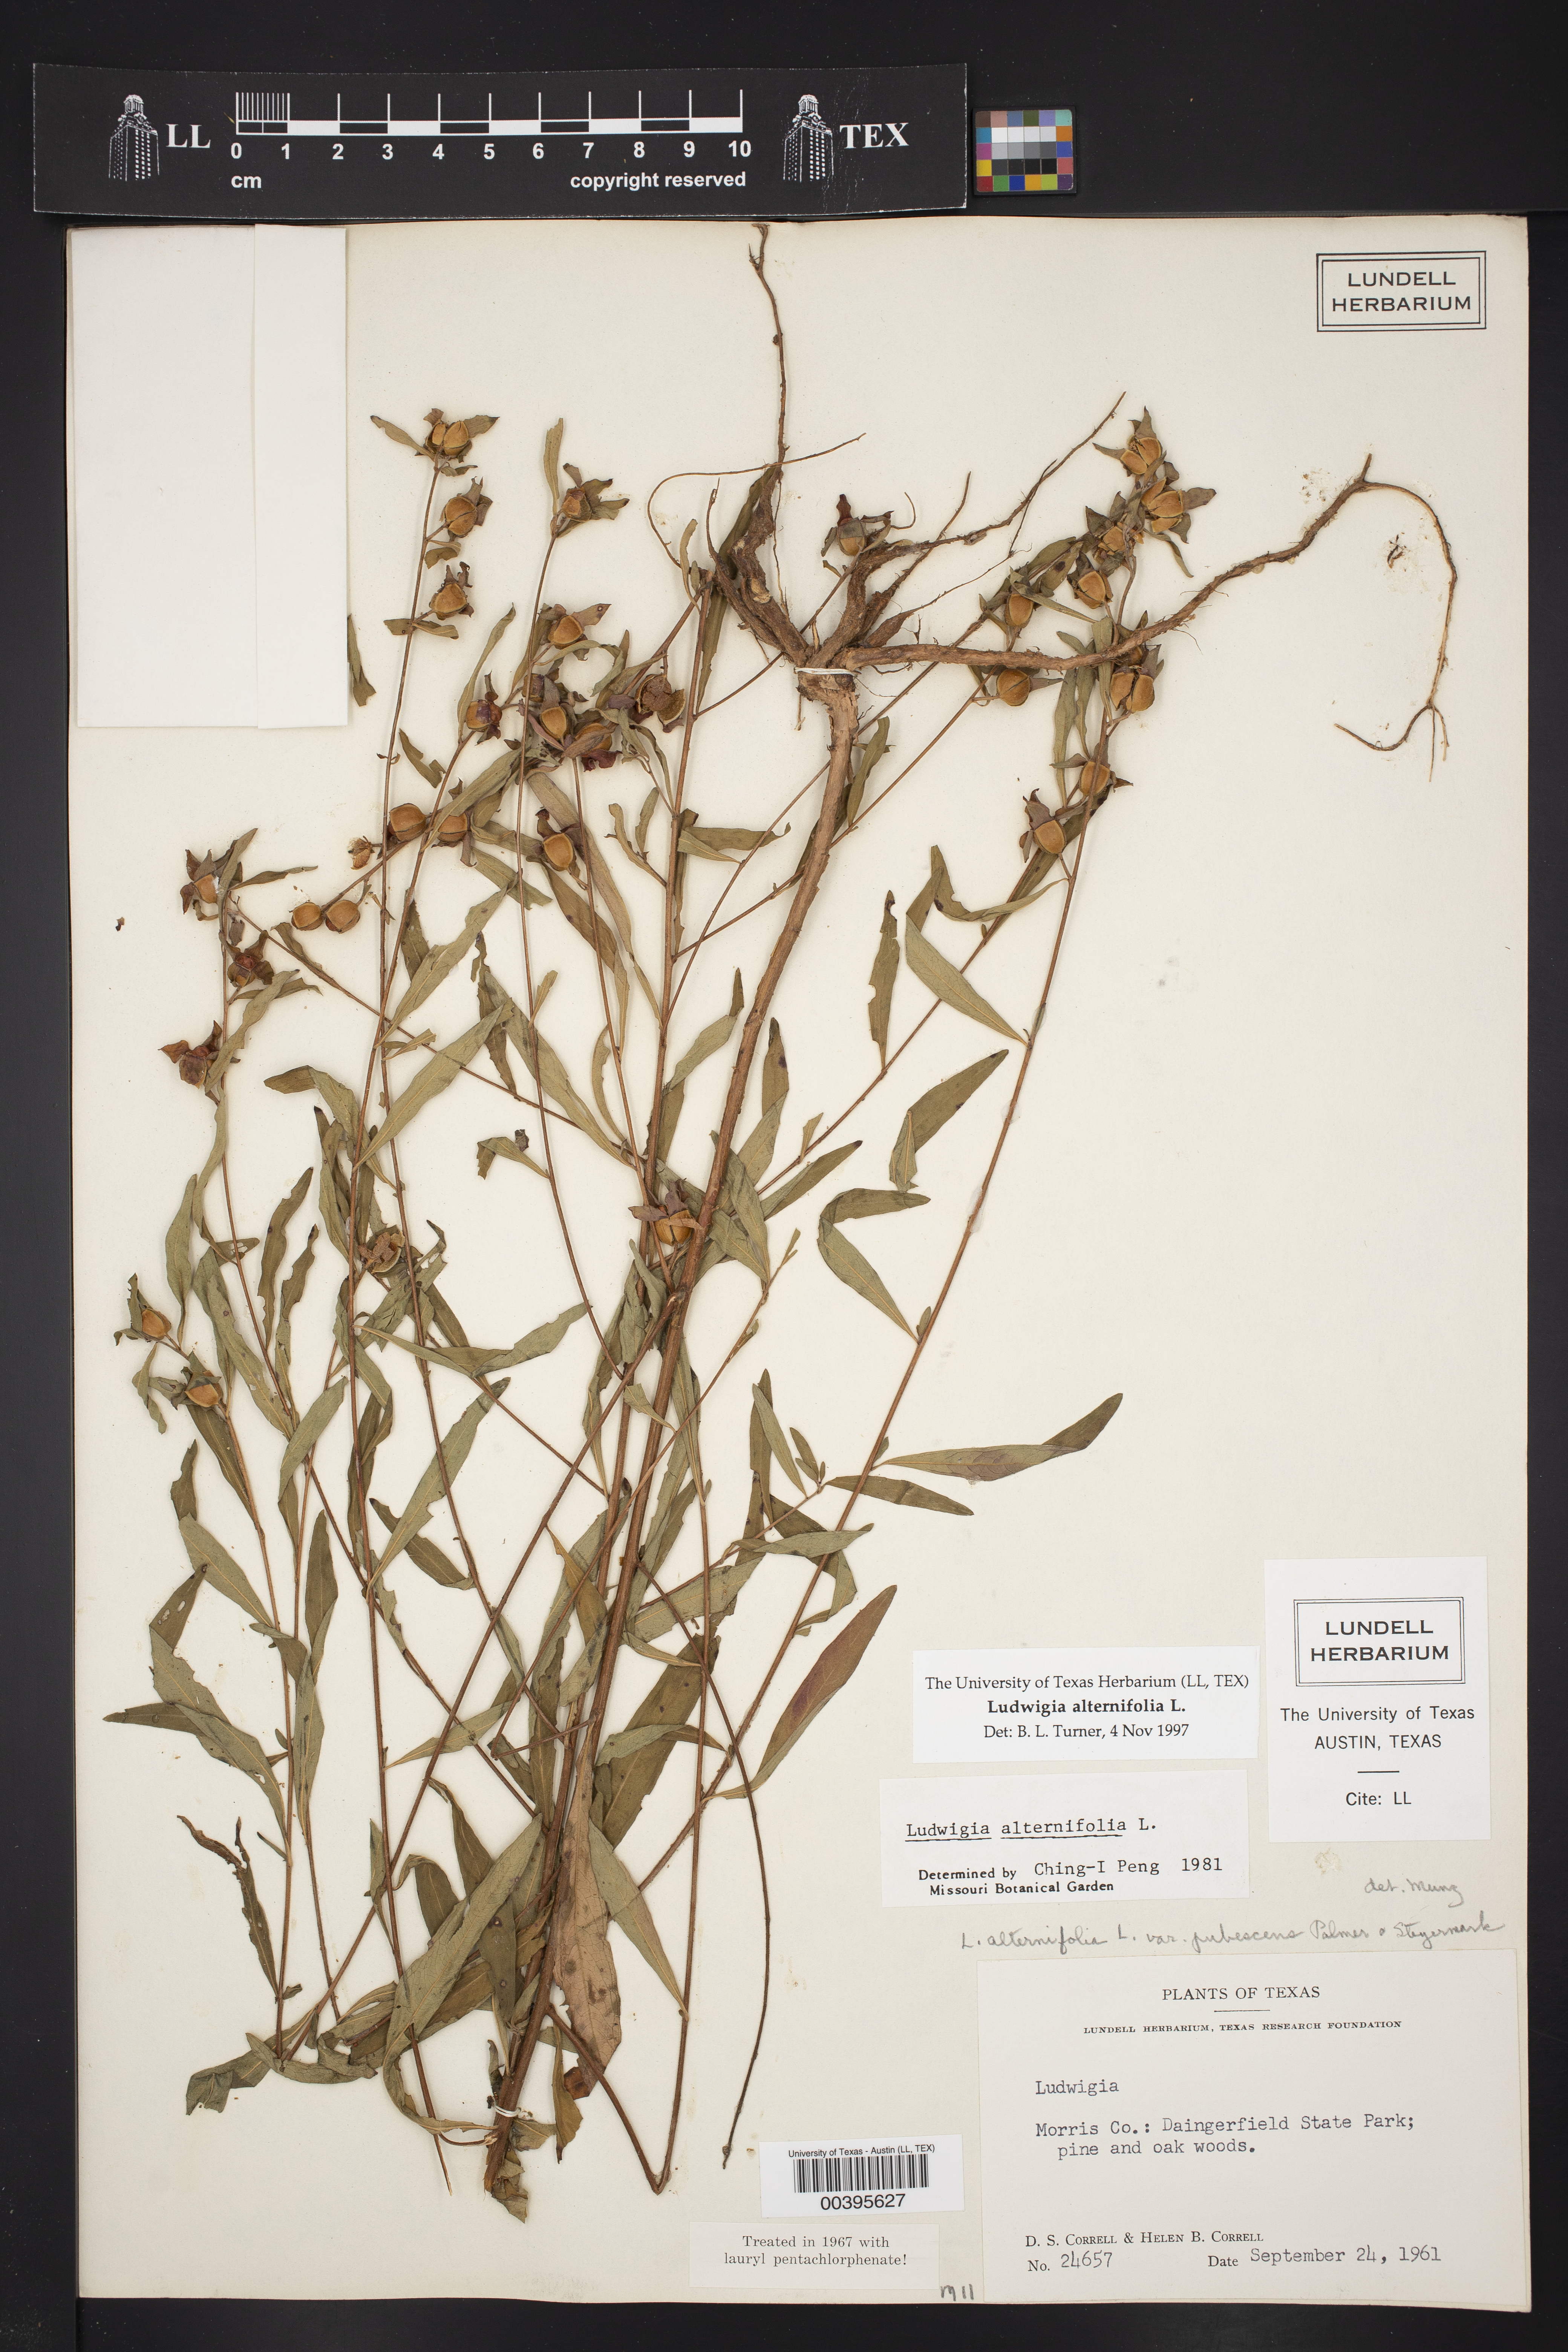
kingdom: Plantae
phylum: Tracheophyta
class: Magnoliopsida
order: Myrtales
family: Onagraceae
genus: Ludwigia
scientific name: Ludwigia alternifolia
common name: Rattlebox
